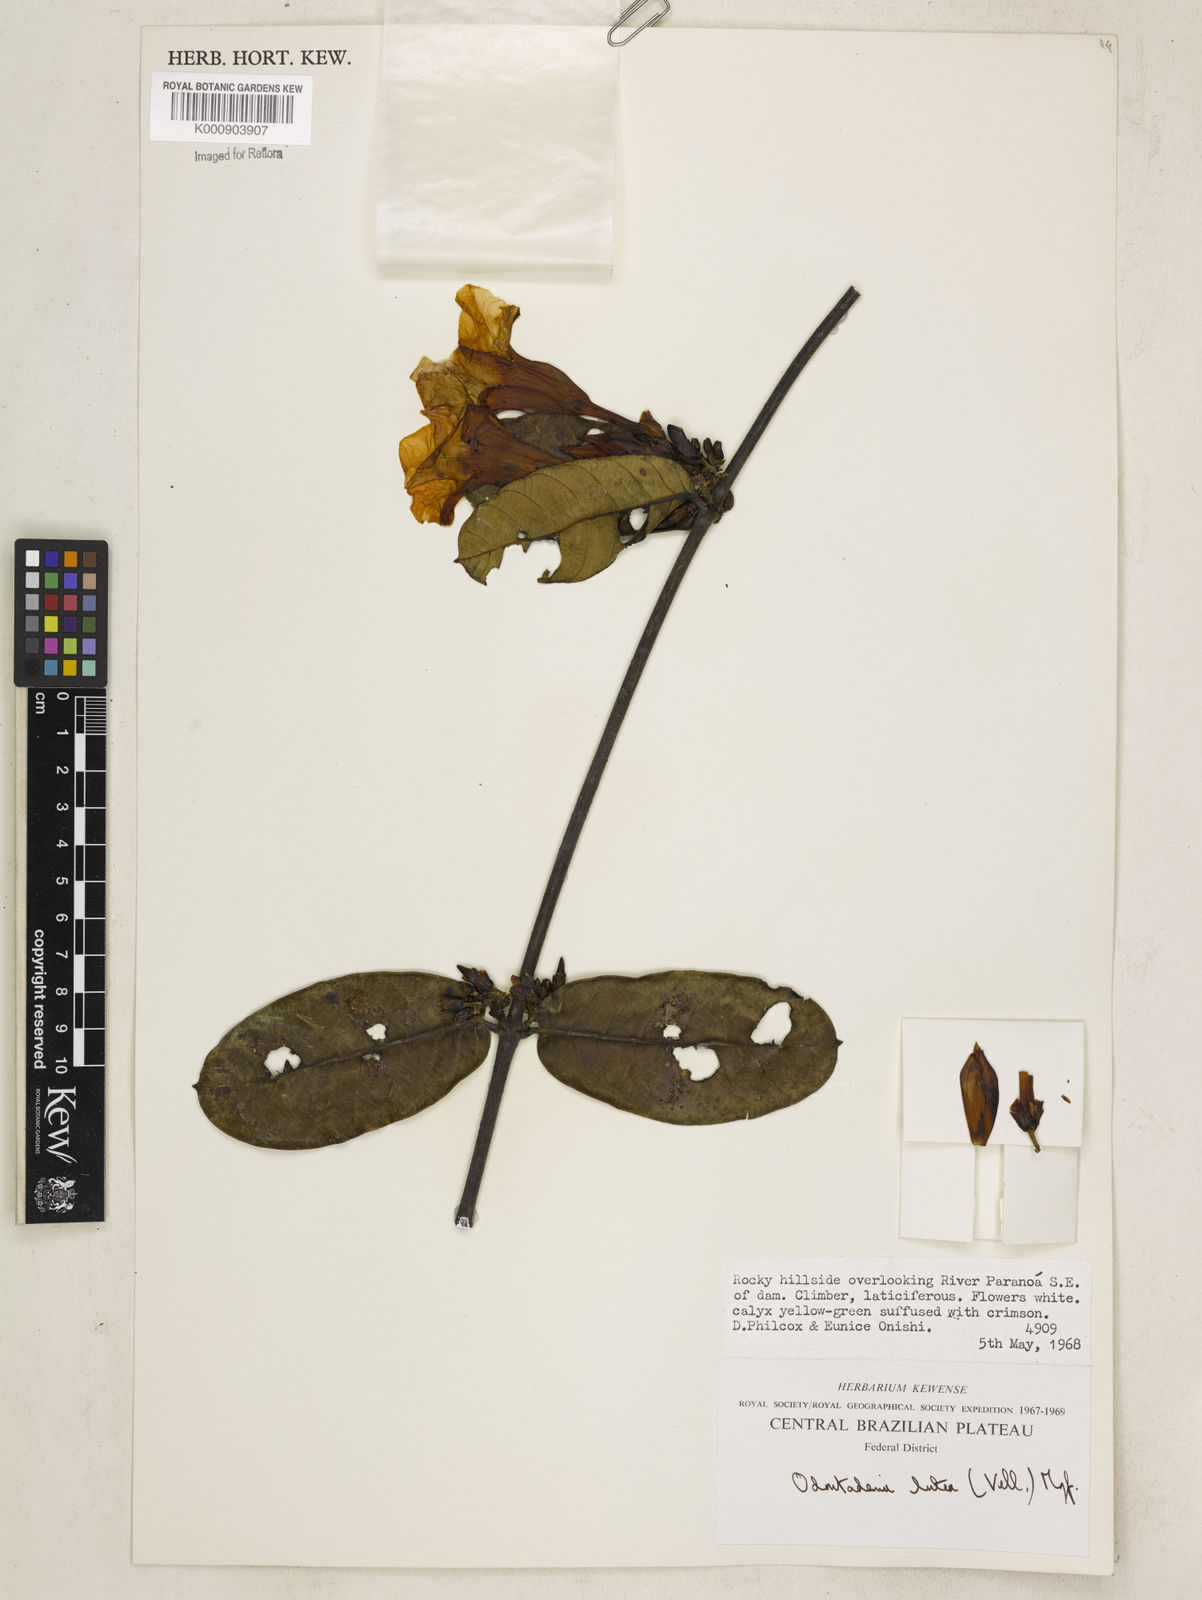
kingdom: Plantae
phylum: Tracheophyta
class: Magnoliopsida
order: Gentianales
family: Apocynaceae
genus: Odontadenia
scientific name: Odontadenia lutea
